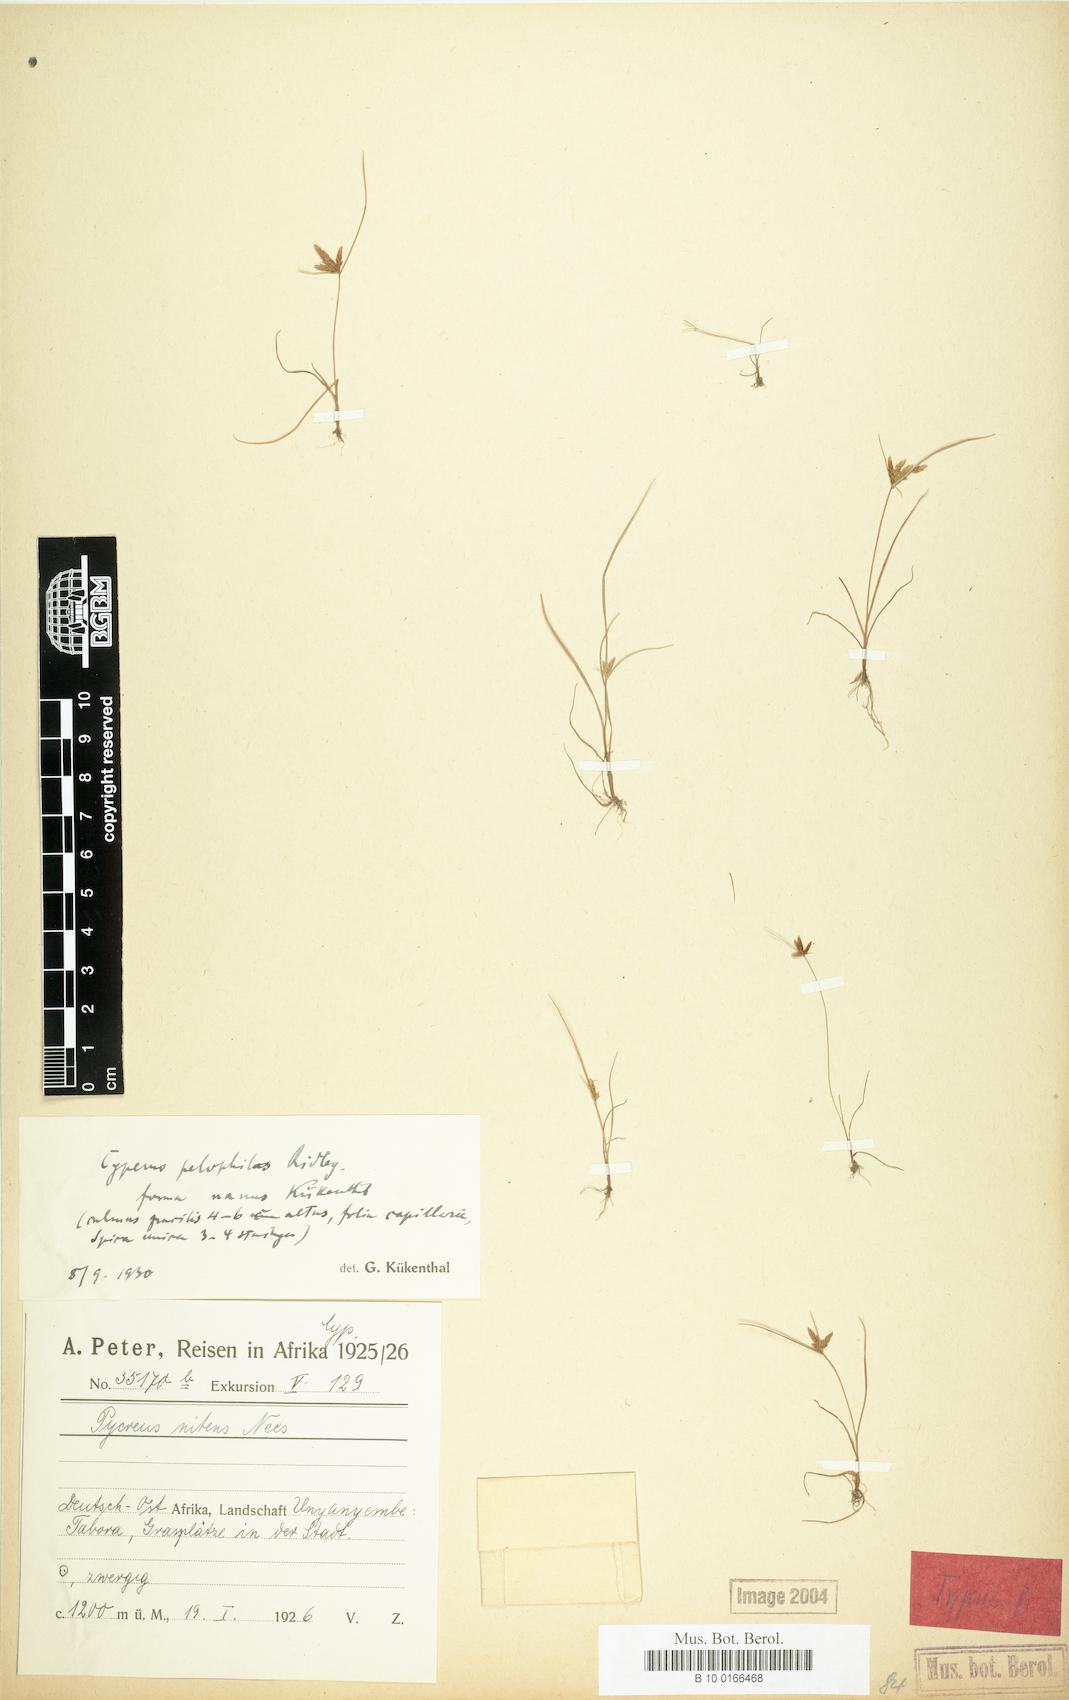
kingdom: Plantae
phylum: Tracheophyta
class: Liliopsida
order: Poales
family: Cyperaceae
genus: Cyperus
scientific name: Cyperus pelophilus
